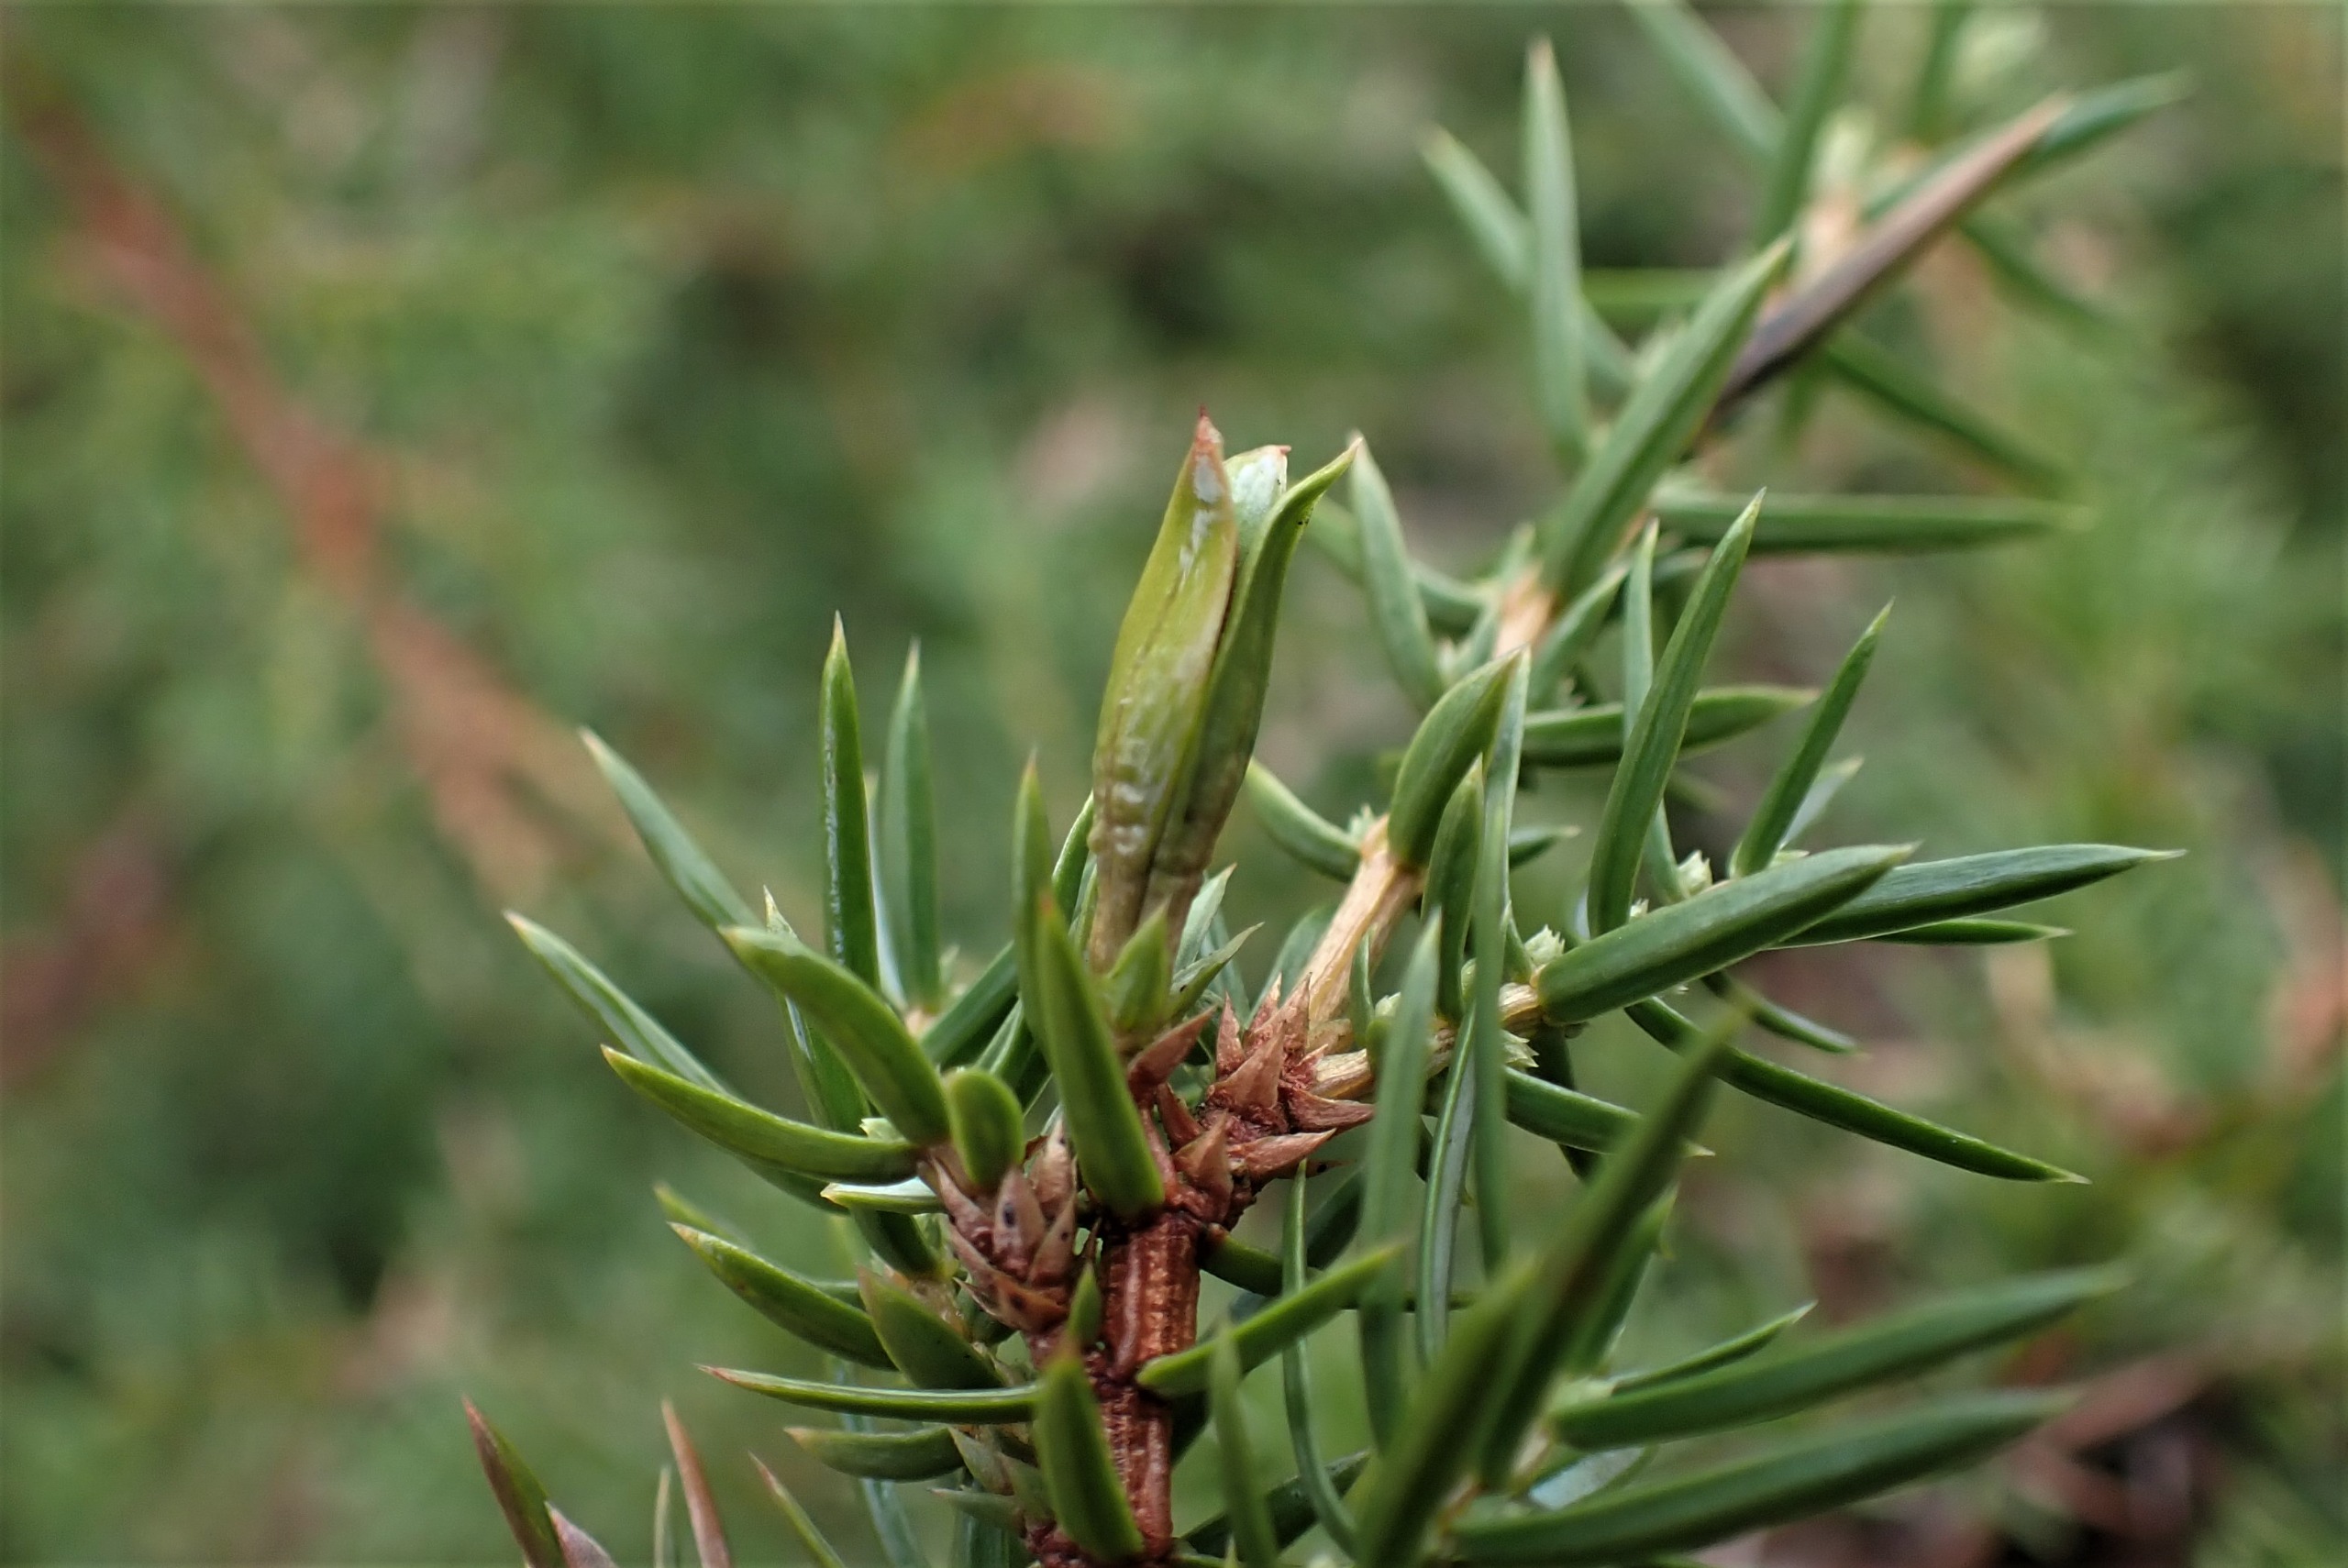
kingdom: Animalia
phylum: Arthropoda
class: Insecta
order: Diptera
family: Cecidomyiidae
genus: Oligotrophus
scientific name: Oligotrophus juniperinus
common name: Kikbærgalmyg
